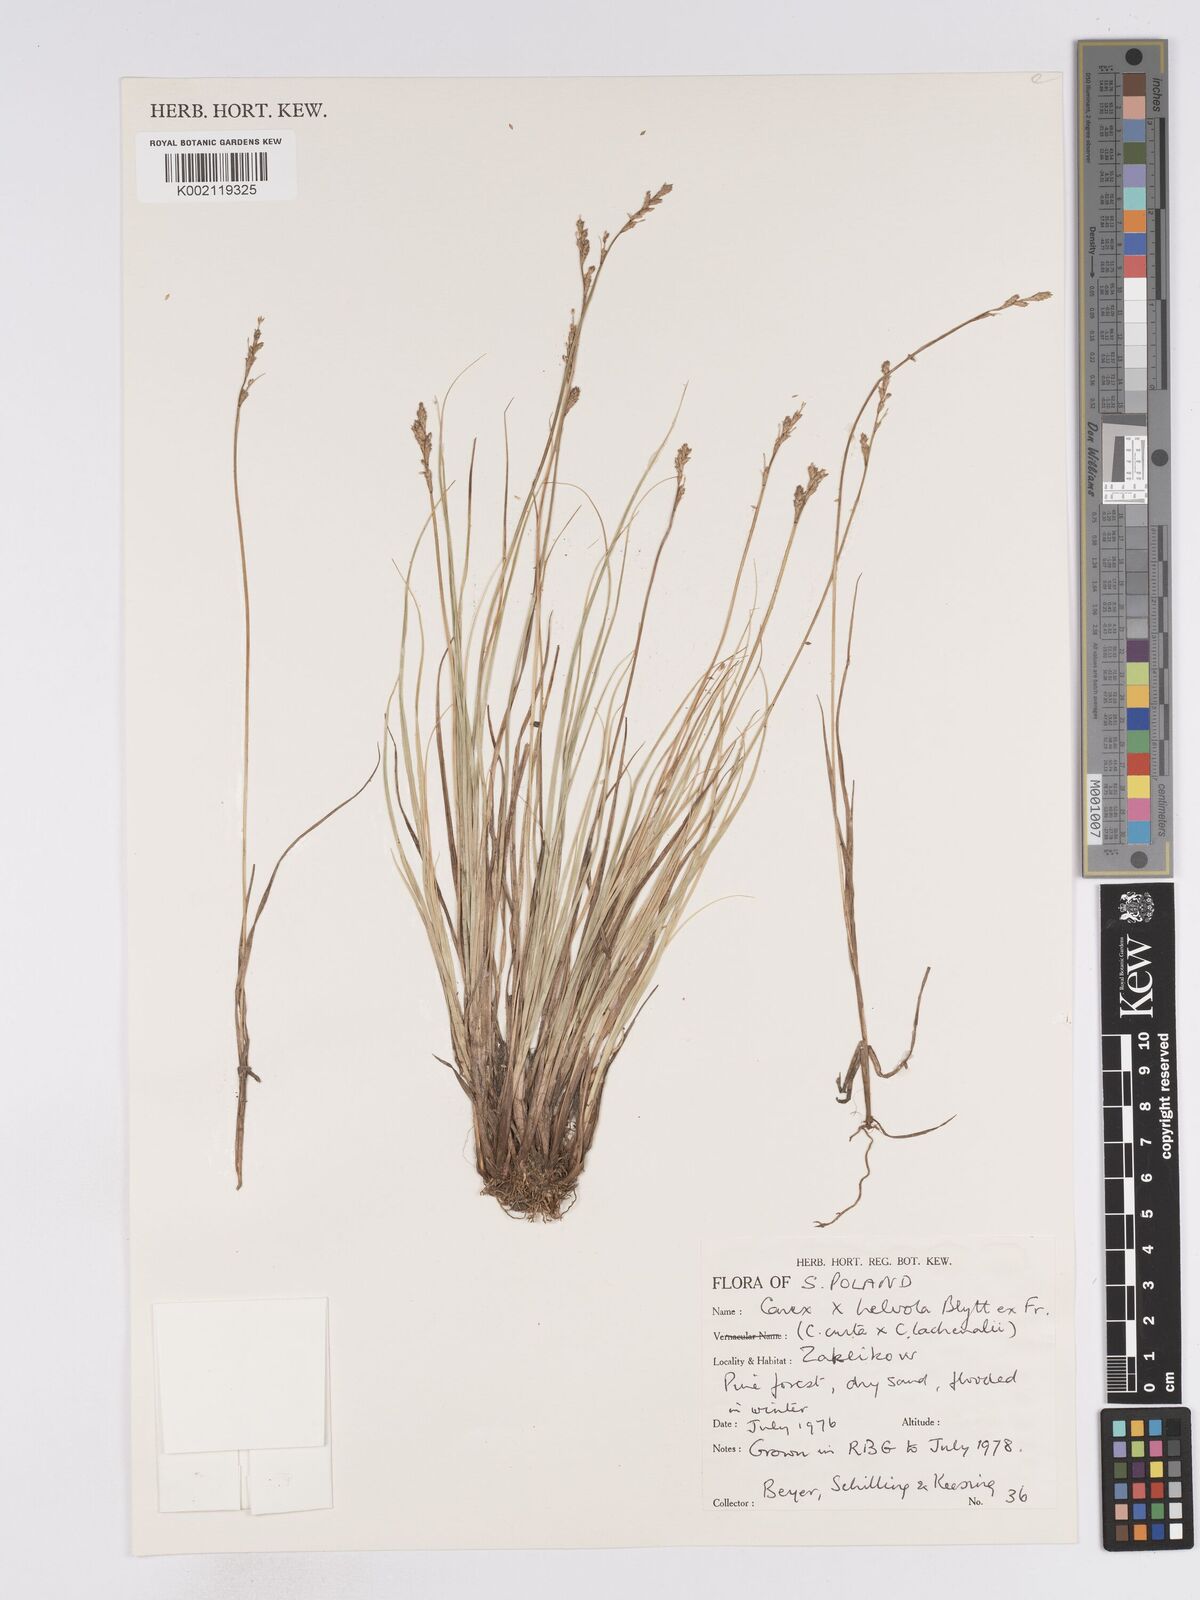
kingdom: Plantae
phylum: Tracheophyta
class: Liliopsida
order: Poales
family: Cyperaceae
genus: Carex
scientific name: Carex
